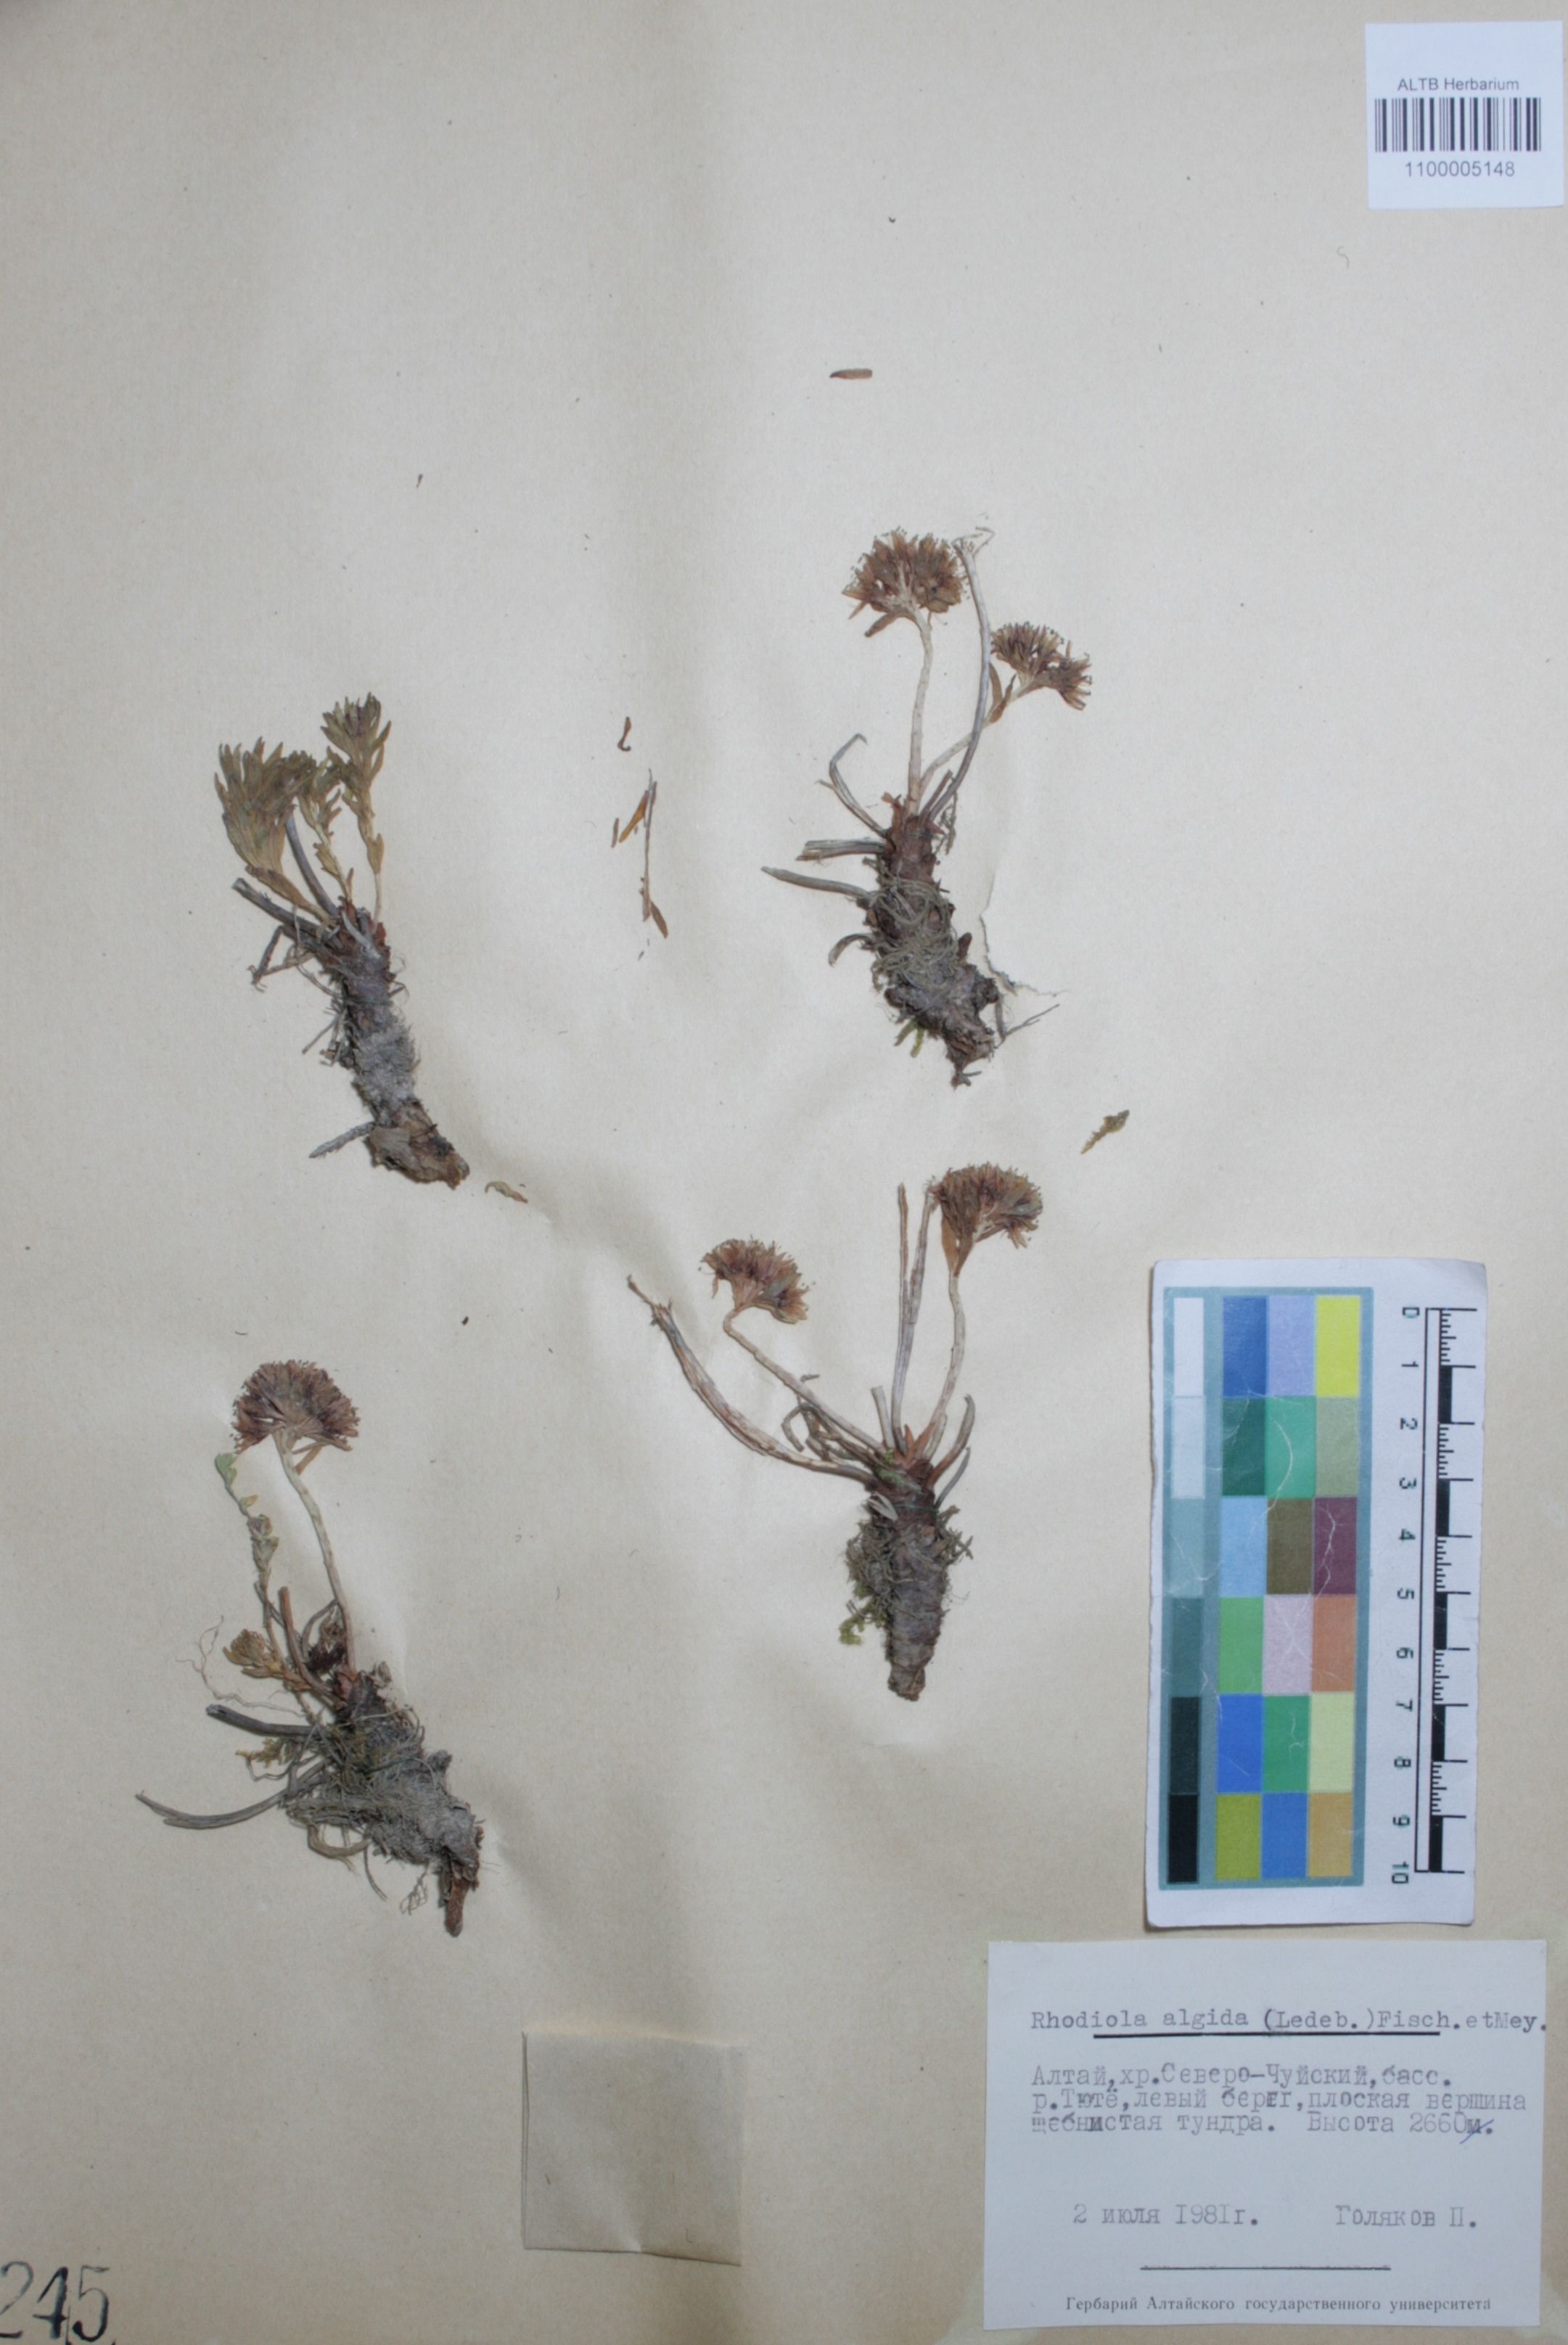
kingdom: Plantae
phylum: Tracheophyta
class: Magnoliopsida
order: Saxifragales
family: Crassulaceae
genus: Rhodiola
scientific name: Rhodiola algida
